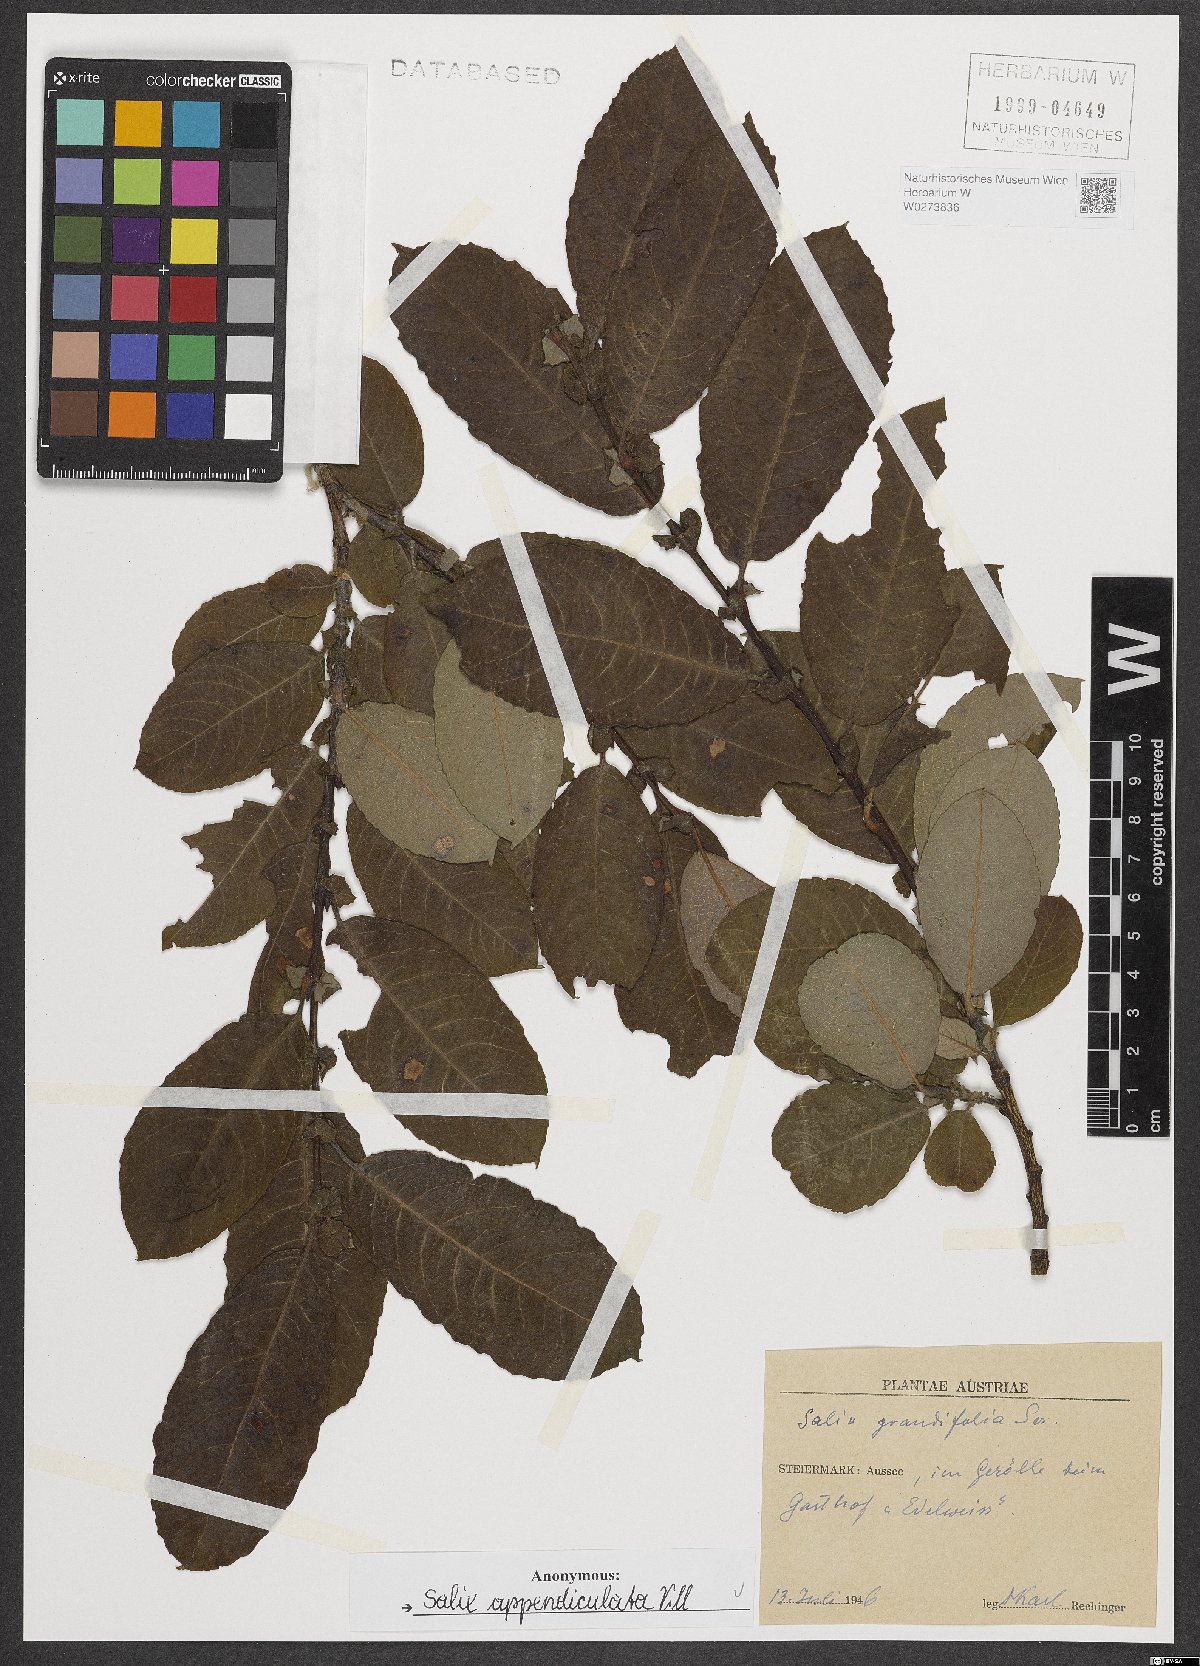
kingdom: Plantae
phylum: Tracheophyta
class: Magnoliopsida
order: Malpighiales
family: Salicaceae
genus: Salix
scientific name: Salix appendiculata
